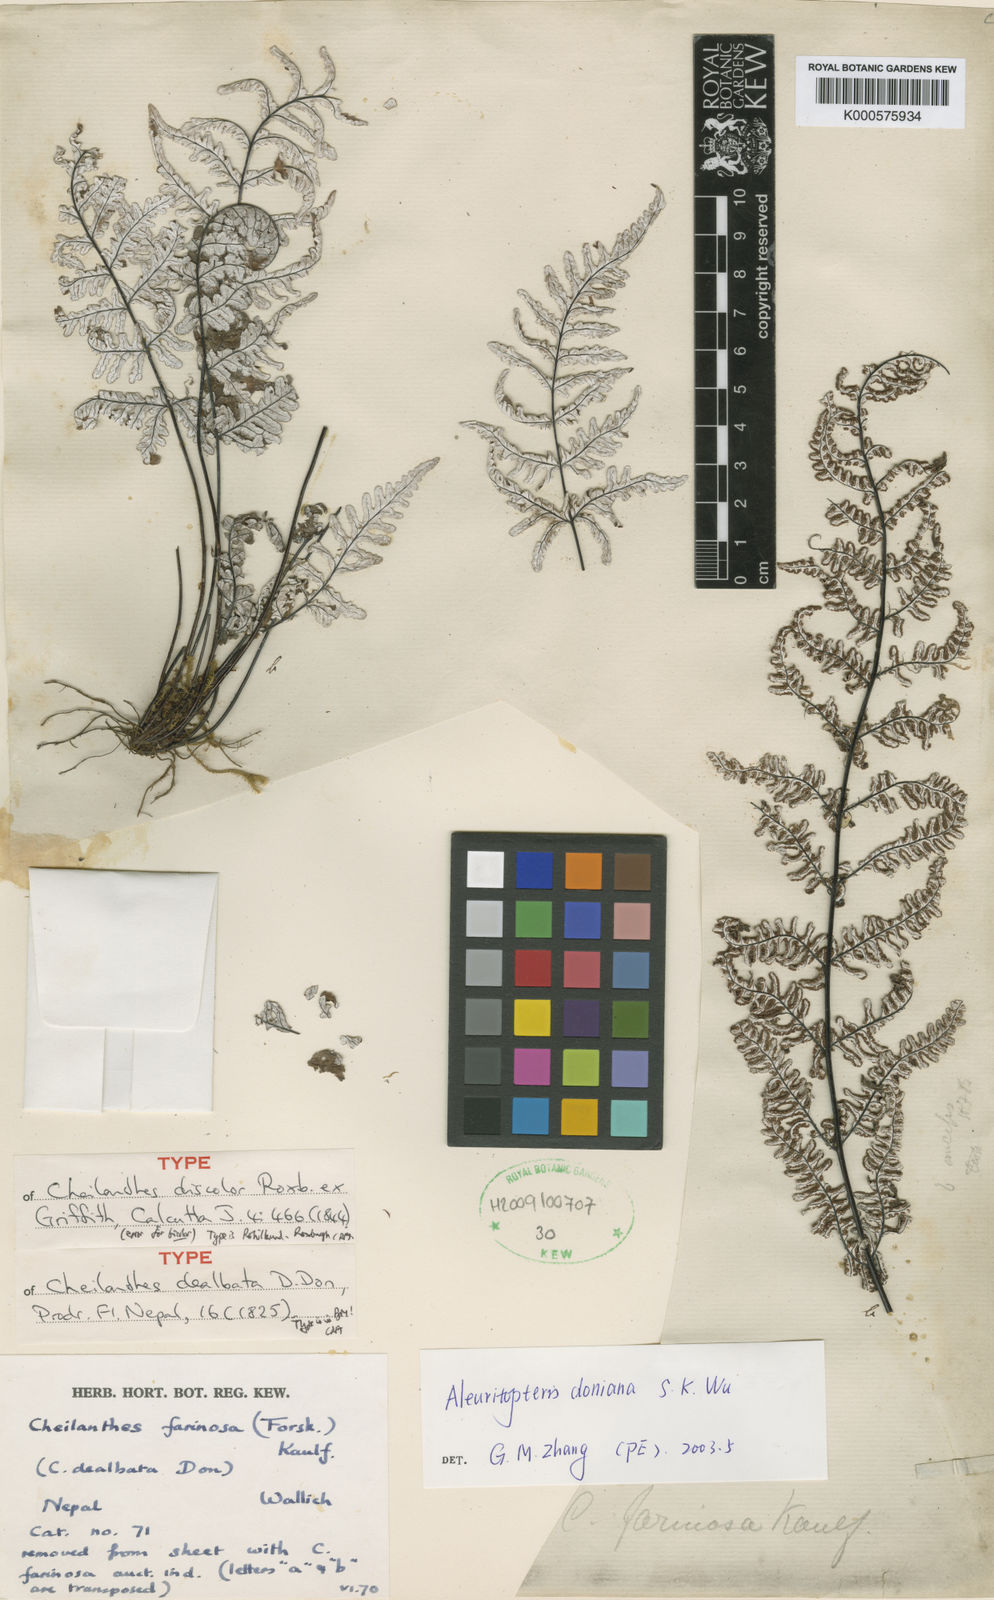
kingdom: Plantae
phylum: Tracheophyta
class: Polypodiopsida
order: Polypodiales
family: Pteridaceae
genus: Aleuritopteris
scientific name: Aleuritopteris dealbata
